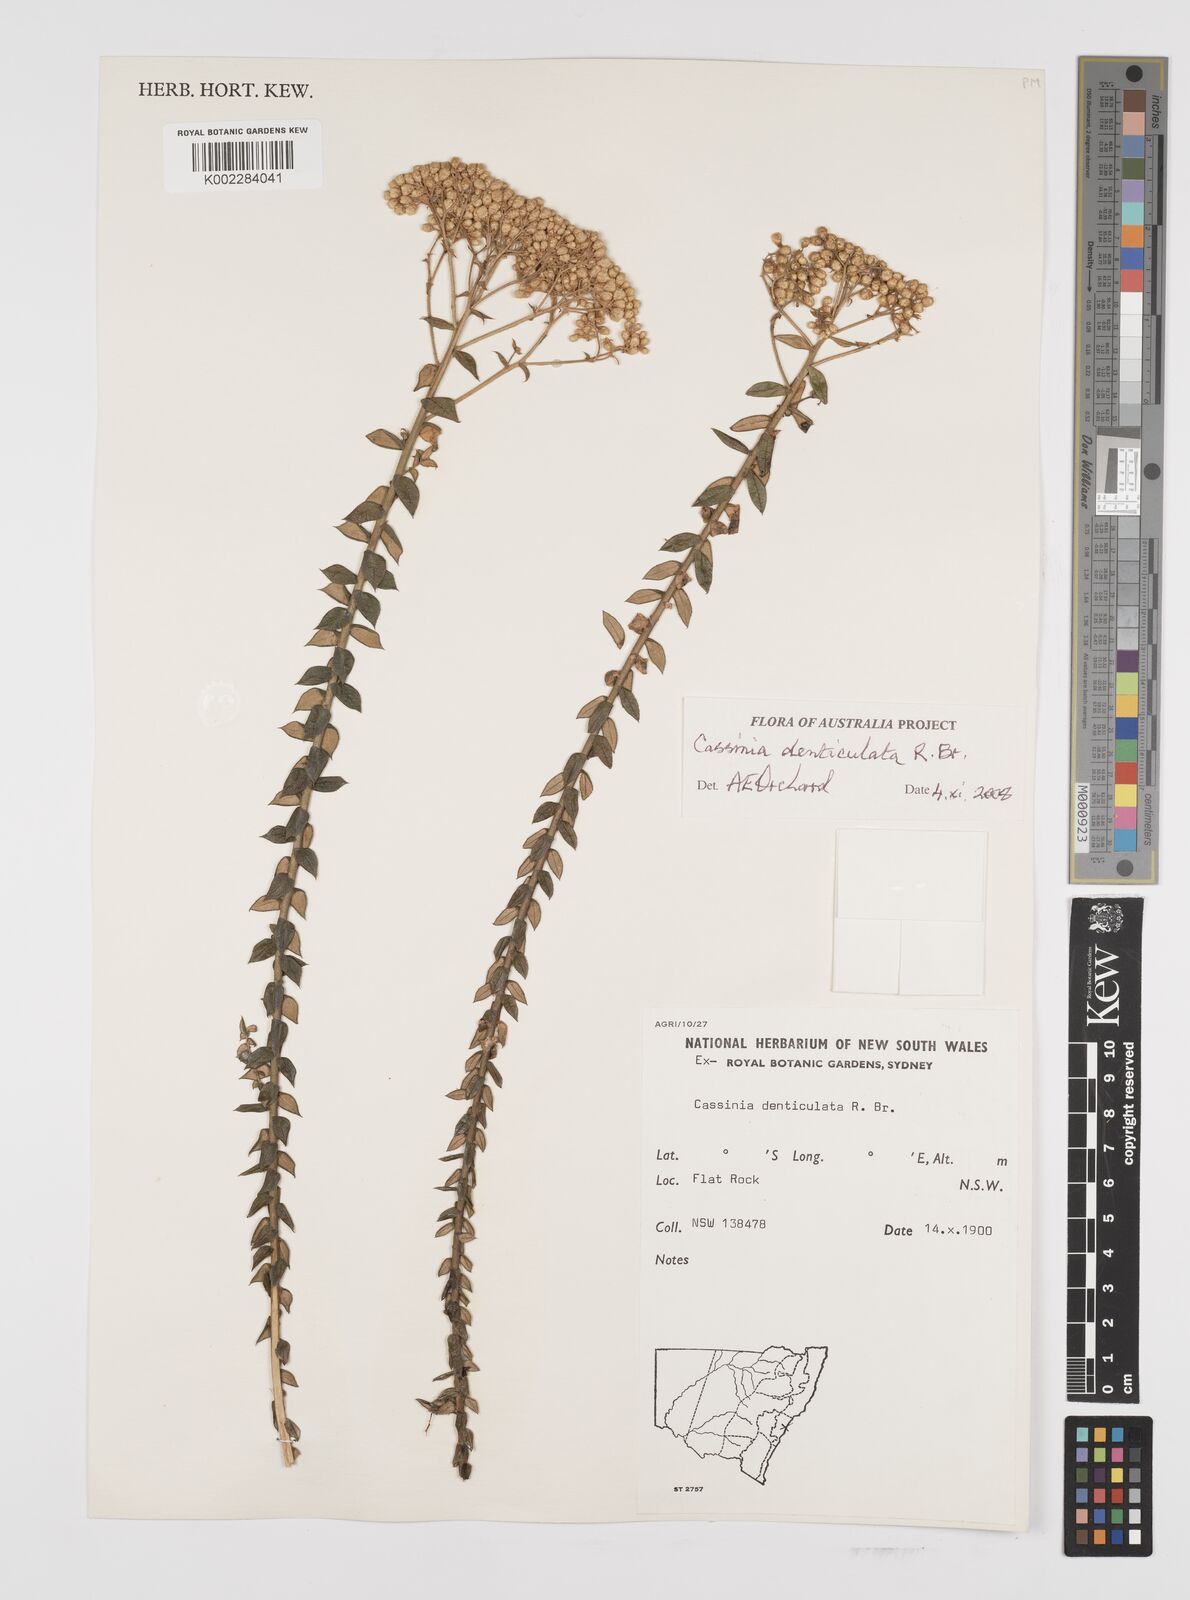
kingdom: Plantae
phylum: Tracheophyta
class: Magnoliopsida
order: Asterales
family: Asteraceae
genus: Cassinia
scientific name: Cassinia denticulata
